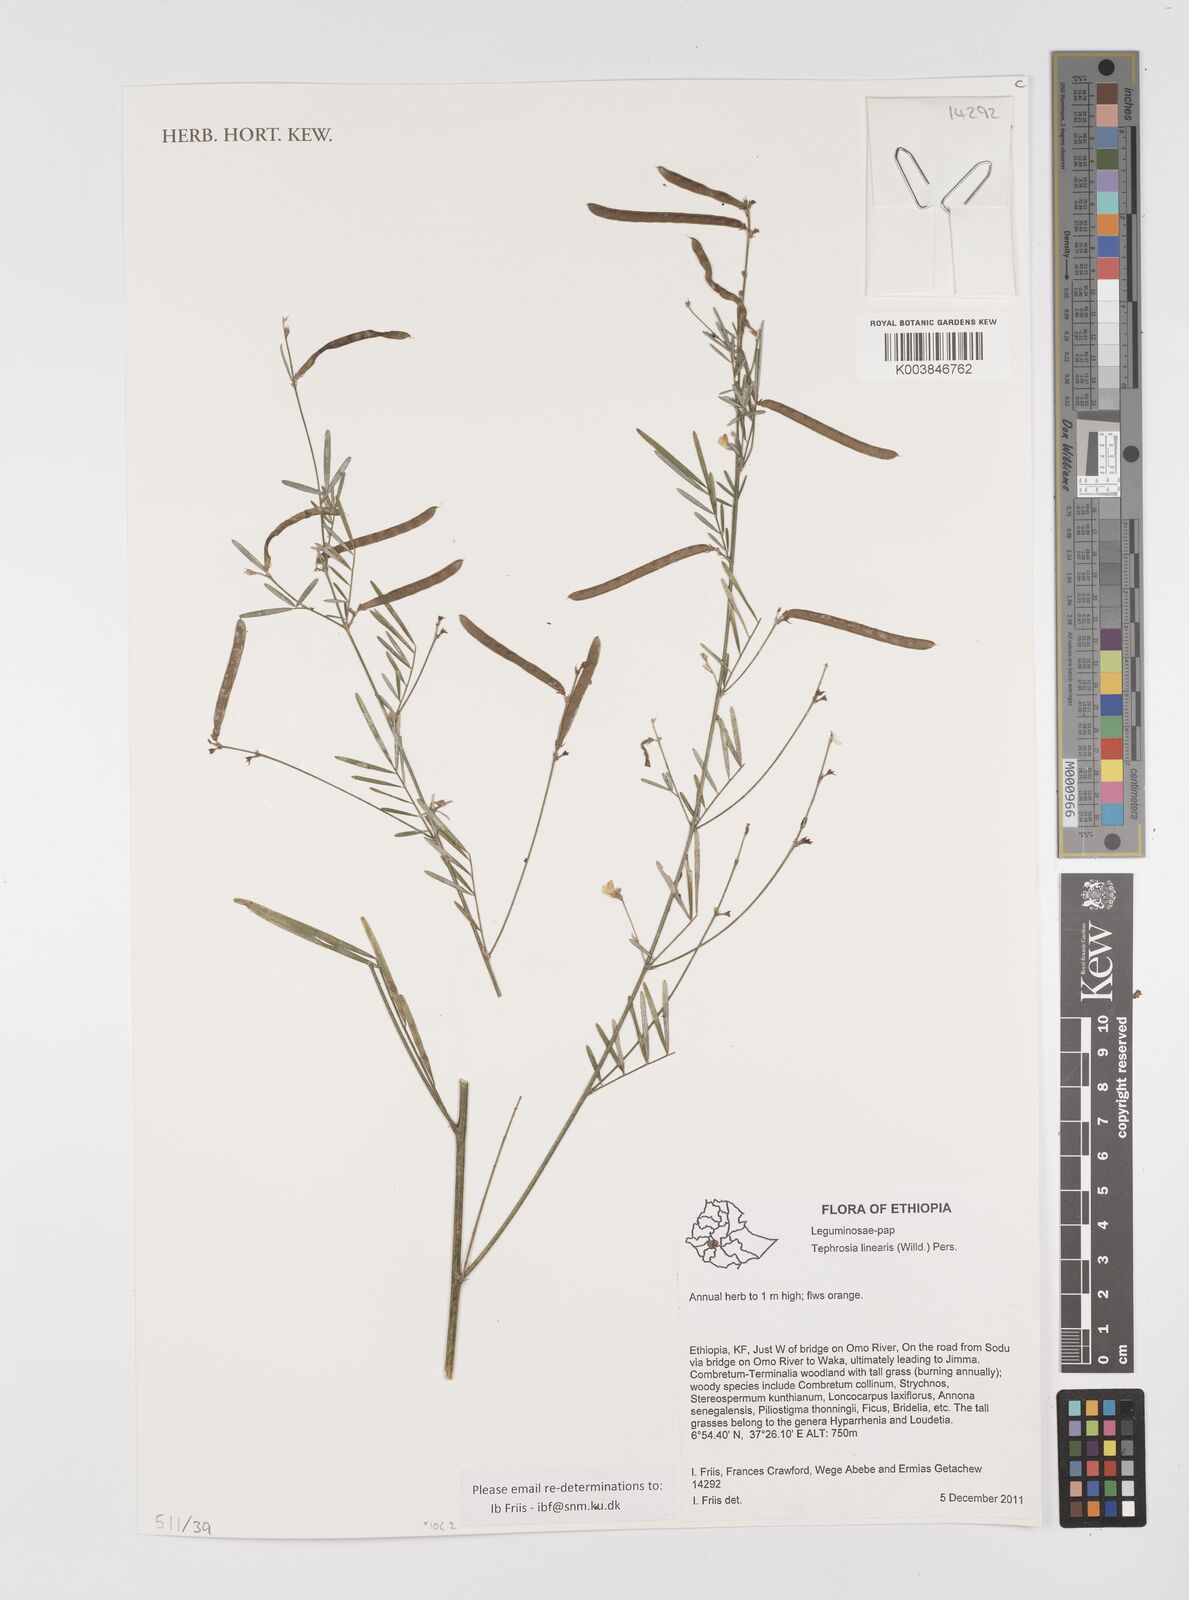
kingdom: Plantae
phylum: Tracheophyta
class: Magnoliopsida
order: Fabales
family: Fabaceae
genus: Tephrosia
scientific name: Tephrosia linearis
